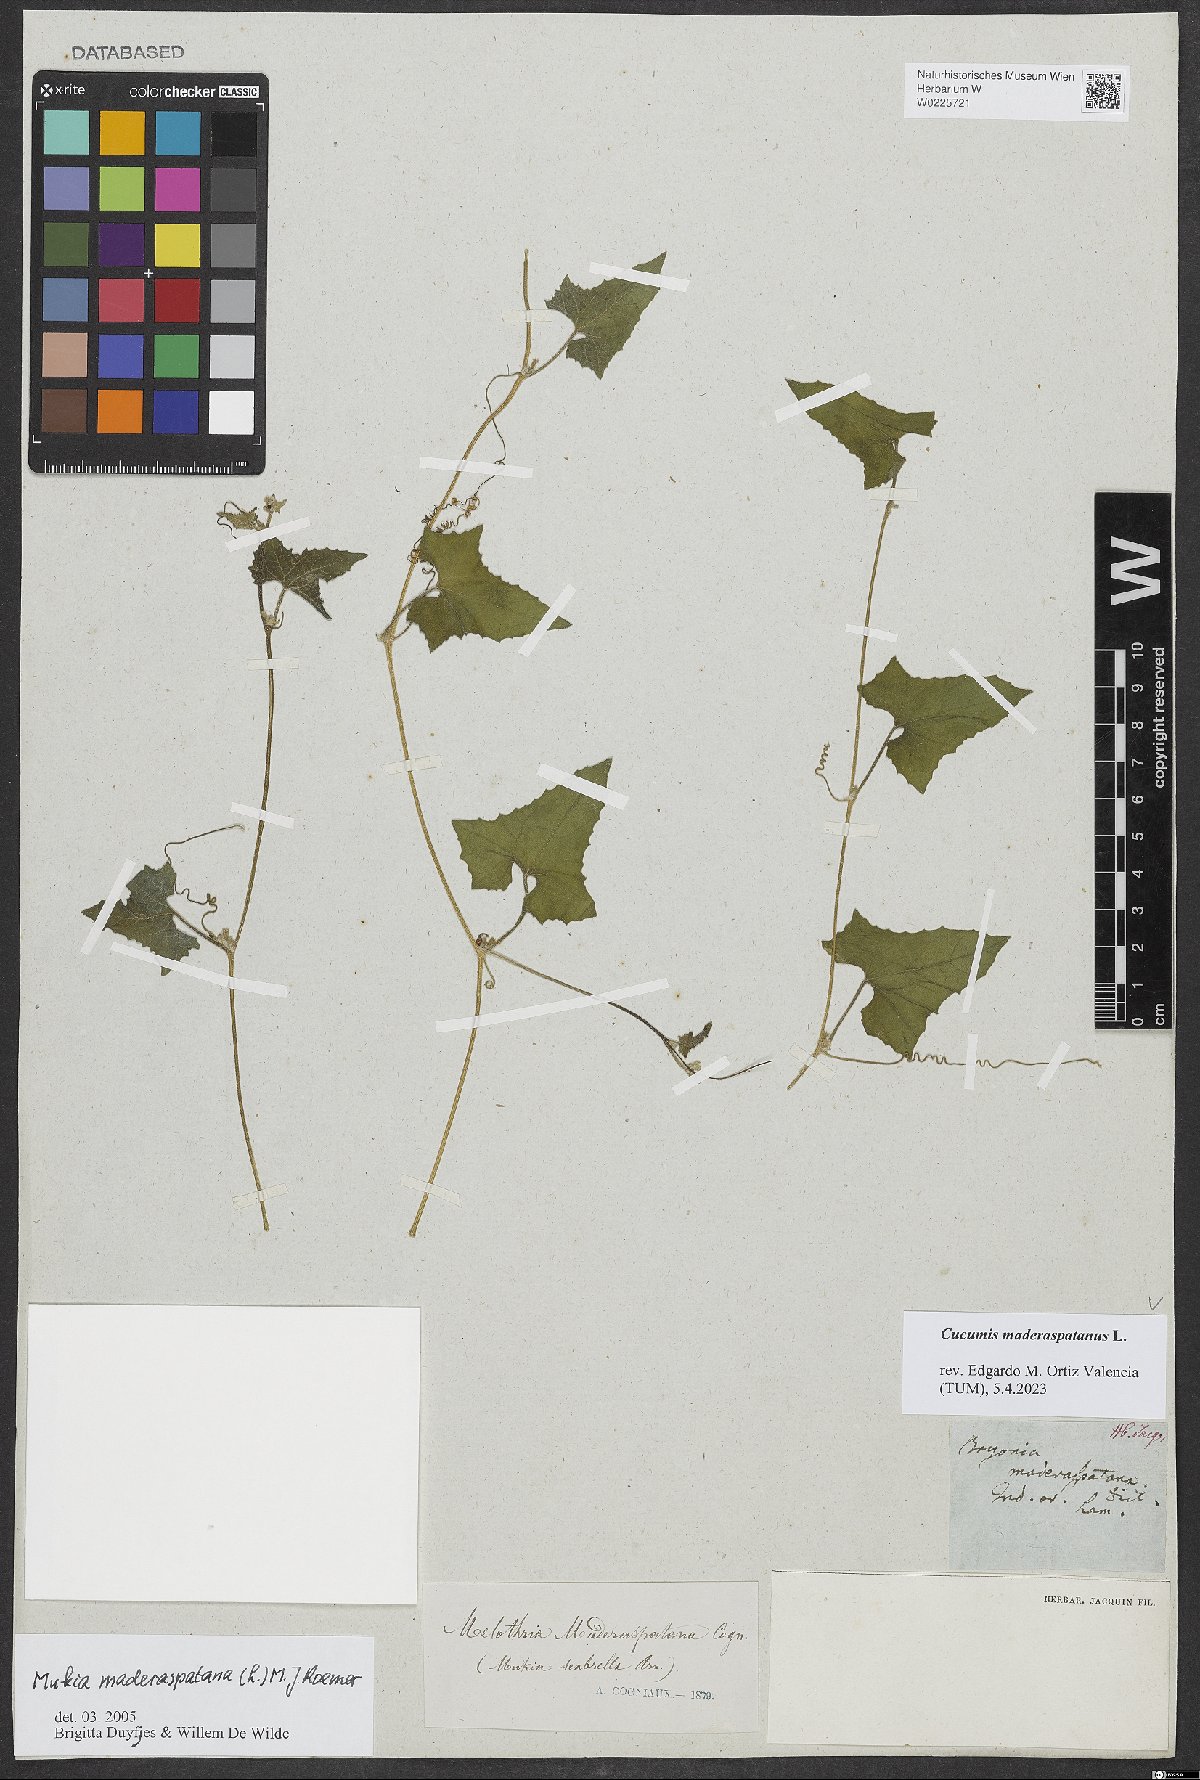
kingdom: Plantae
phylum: Tracheophyta
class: Magnoliopsida
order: Cucurbitales
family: Cucurbitaceae
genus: Cucumis
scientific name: Cucumis maderaspatanus
